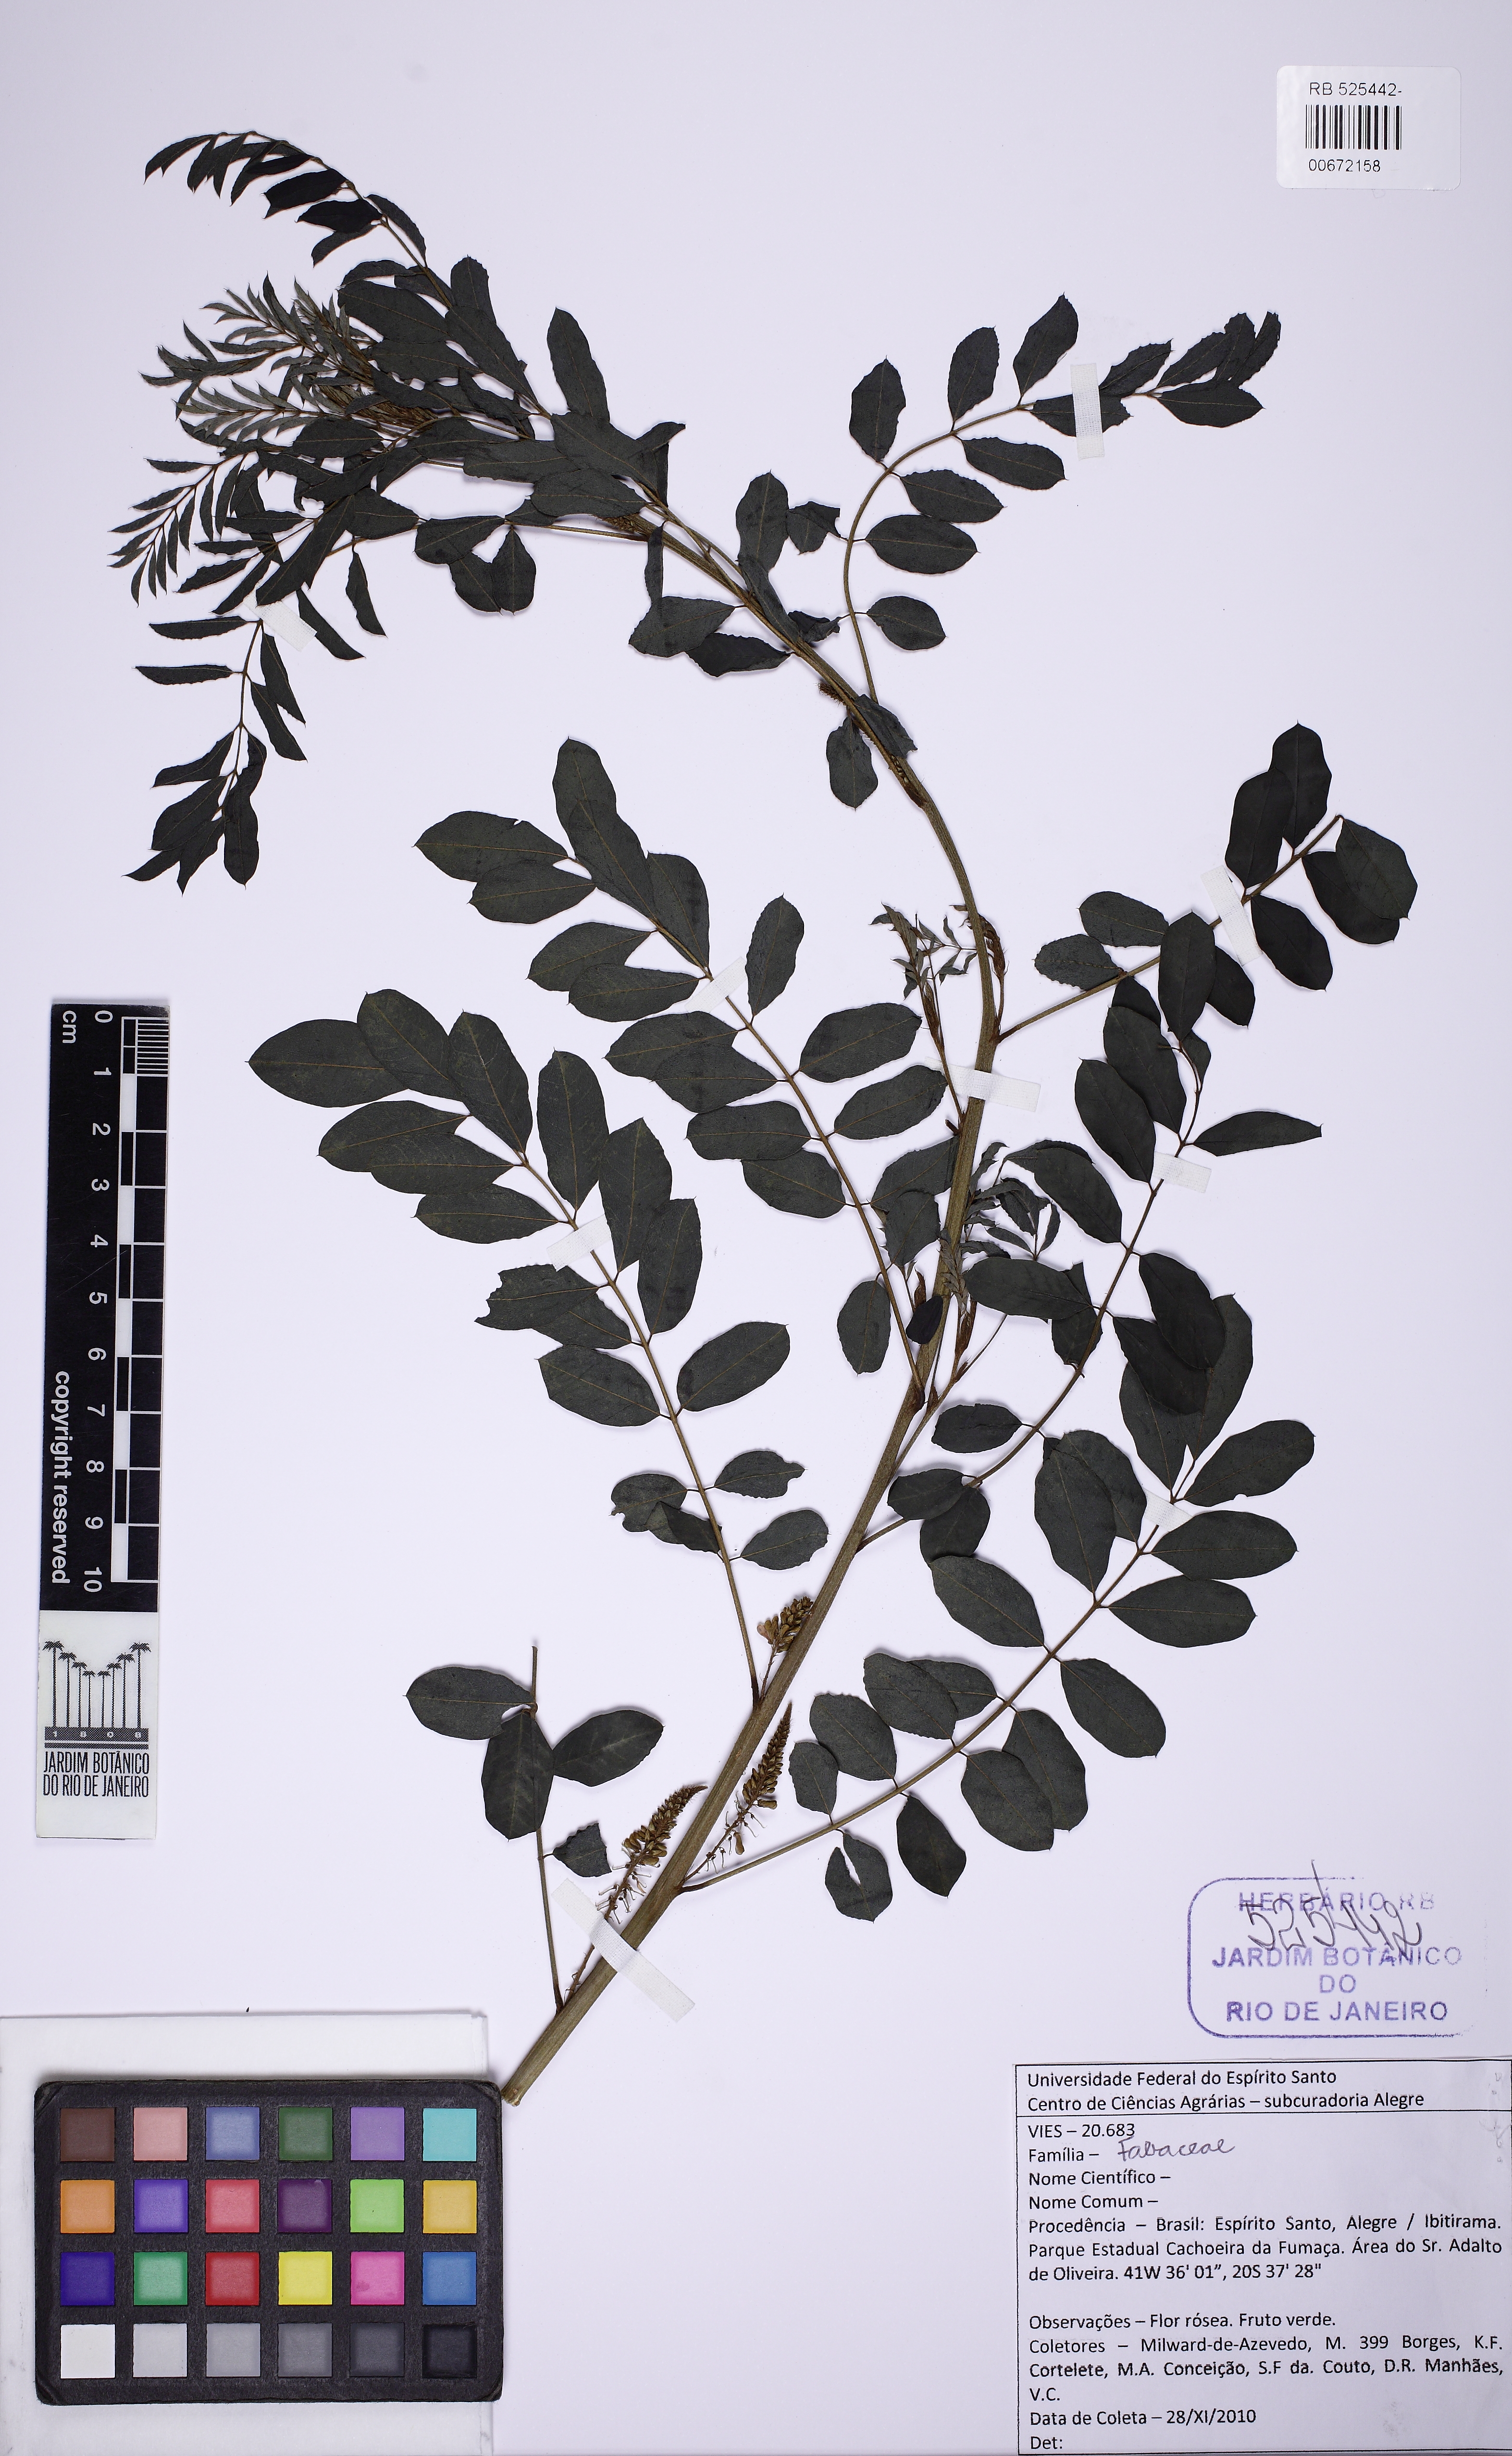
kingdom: Plantae
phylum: Tracheophyta
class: Magnoliopsida
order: Fabales
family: Fabaceae
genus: Indigofera
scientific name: Indigofera
